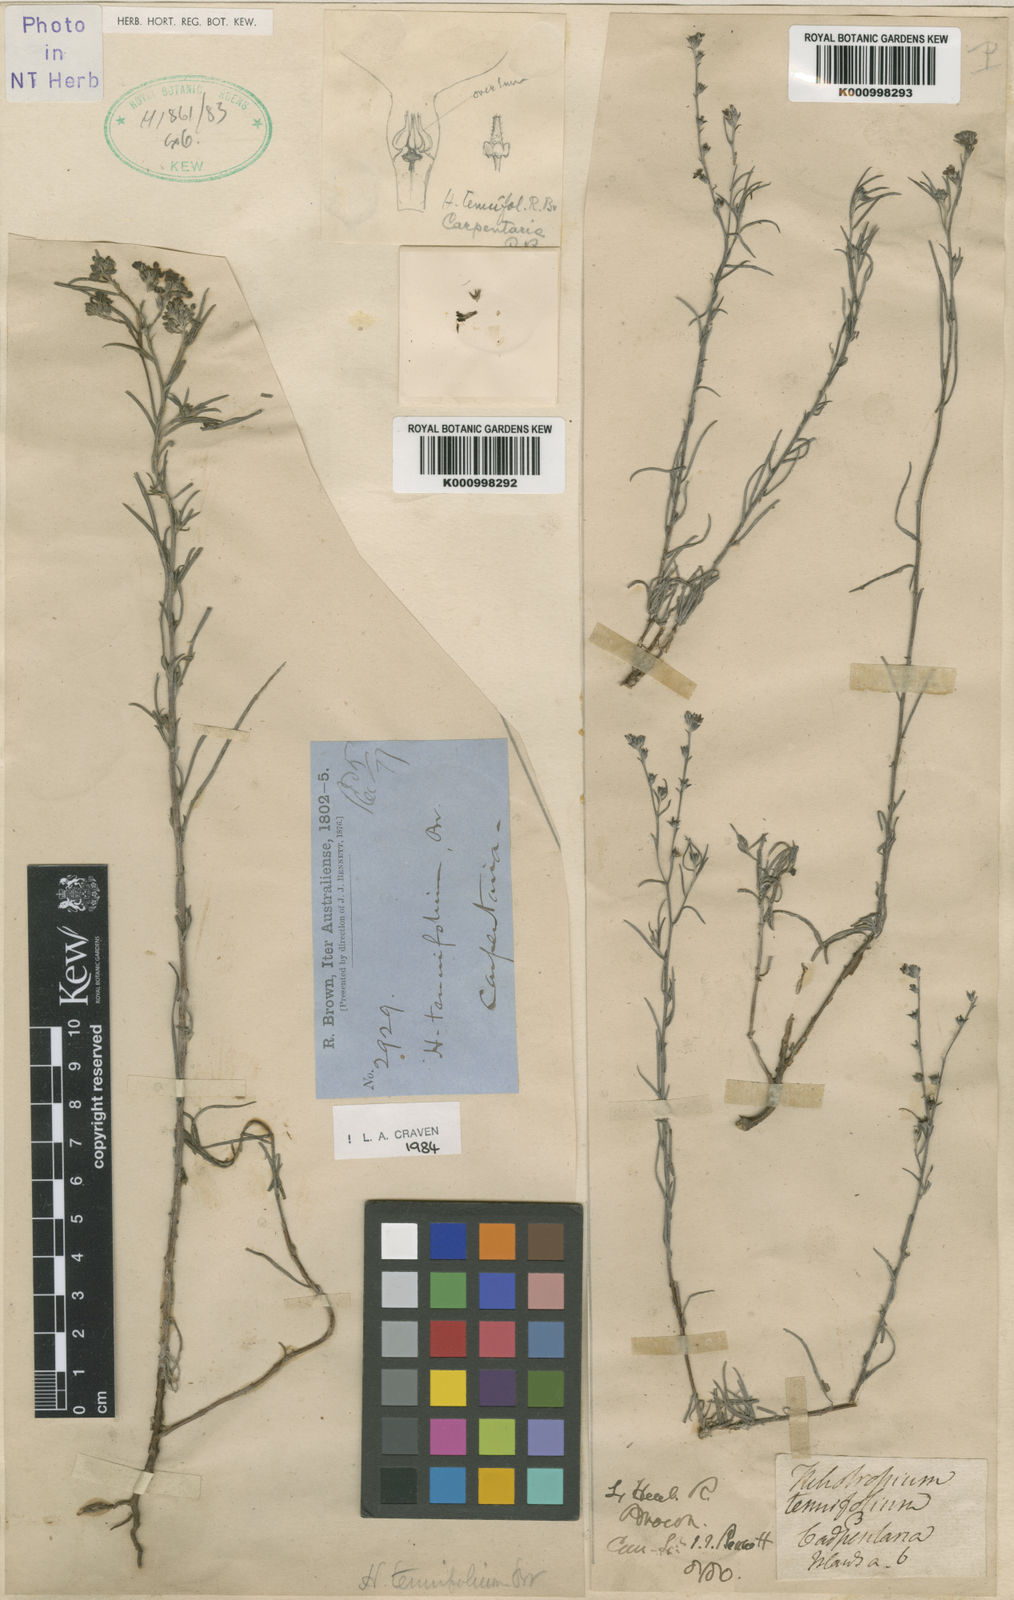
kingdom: Plantae
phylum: Tracheophyta
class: Magnoliopsida
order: Boraginales
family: Heliotropiaceae
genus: Euploca
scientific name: Euploca tenuifolia
